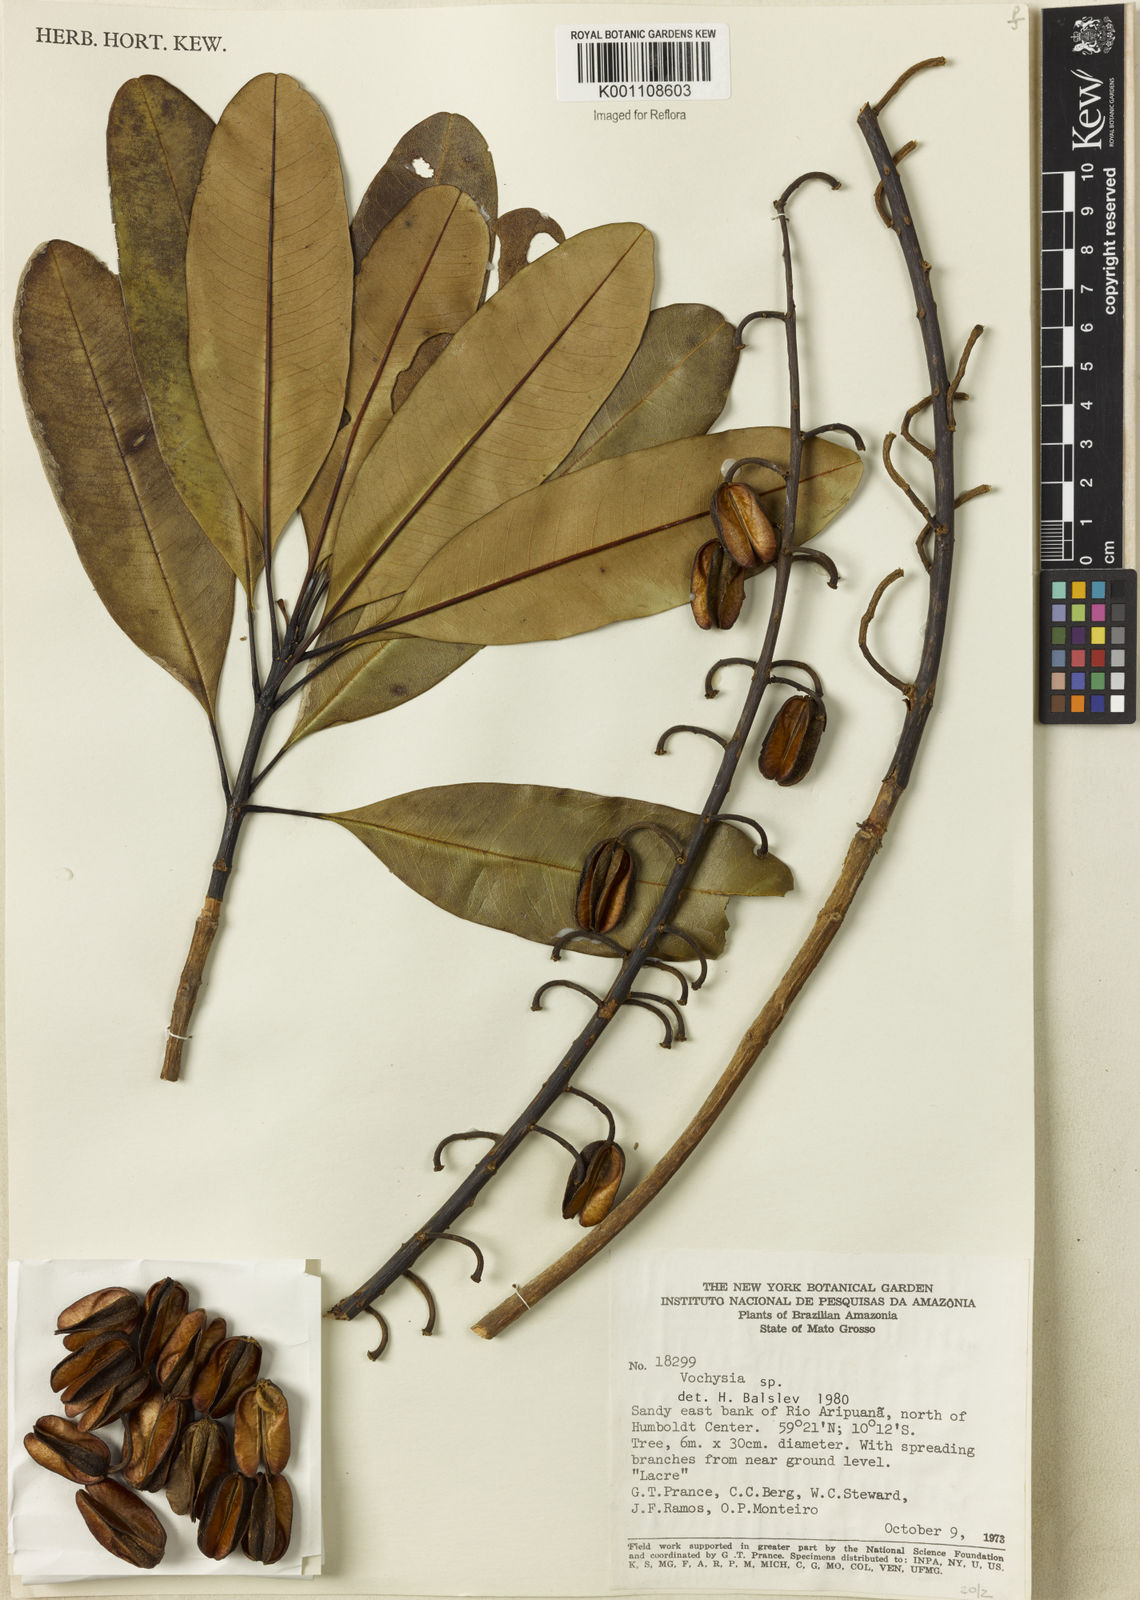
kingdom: Plantae
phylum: Tracheophyta
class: Magnoliopsida
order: Myrtales
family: Vochysiaceae
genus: Vochysia
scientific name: Vochysia
